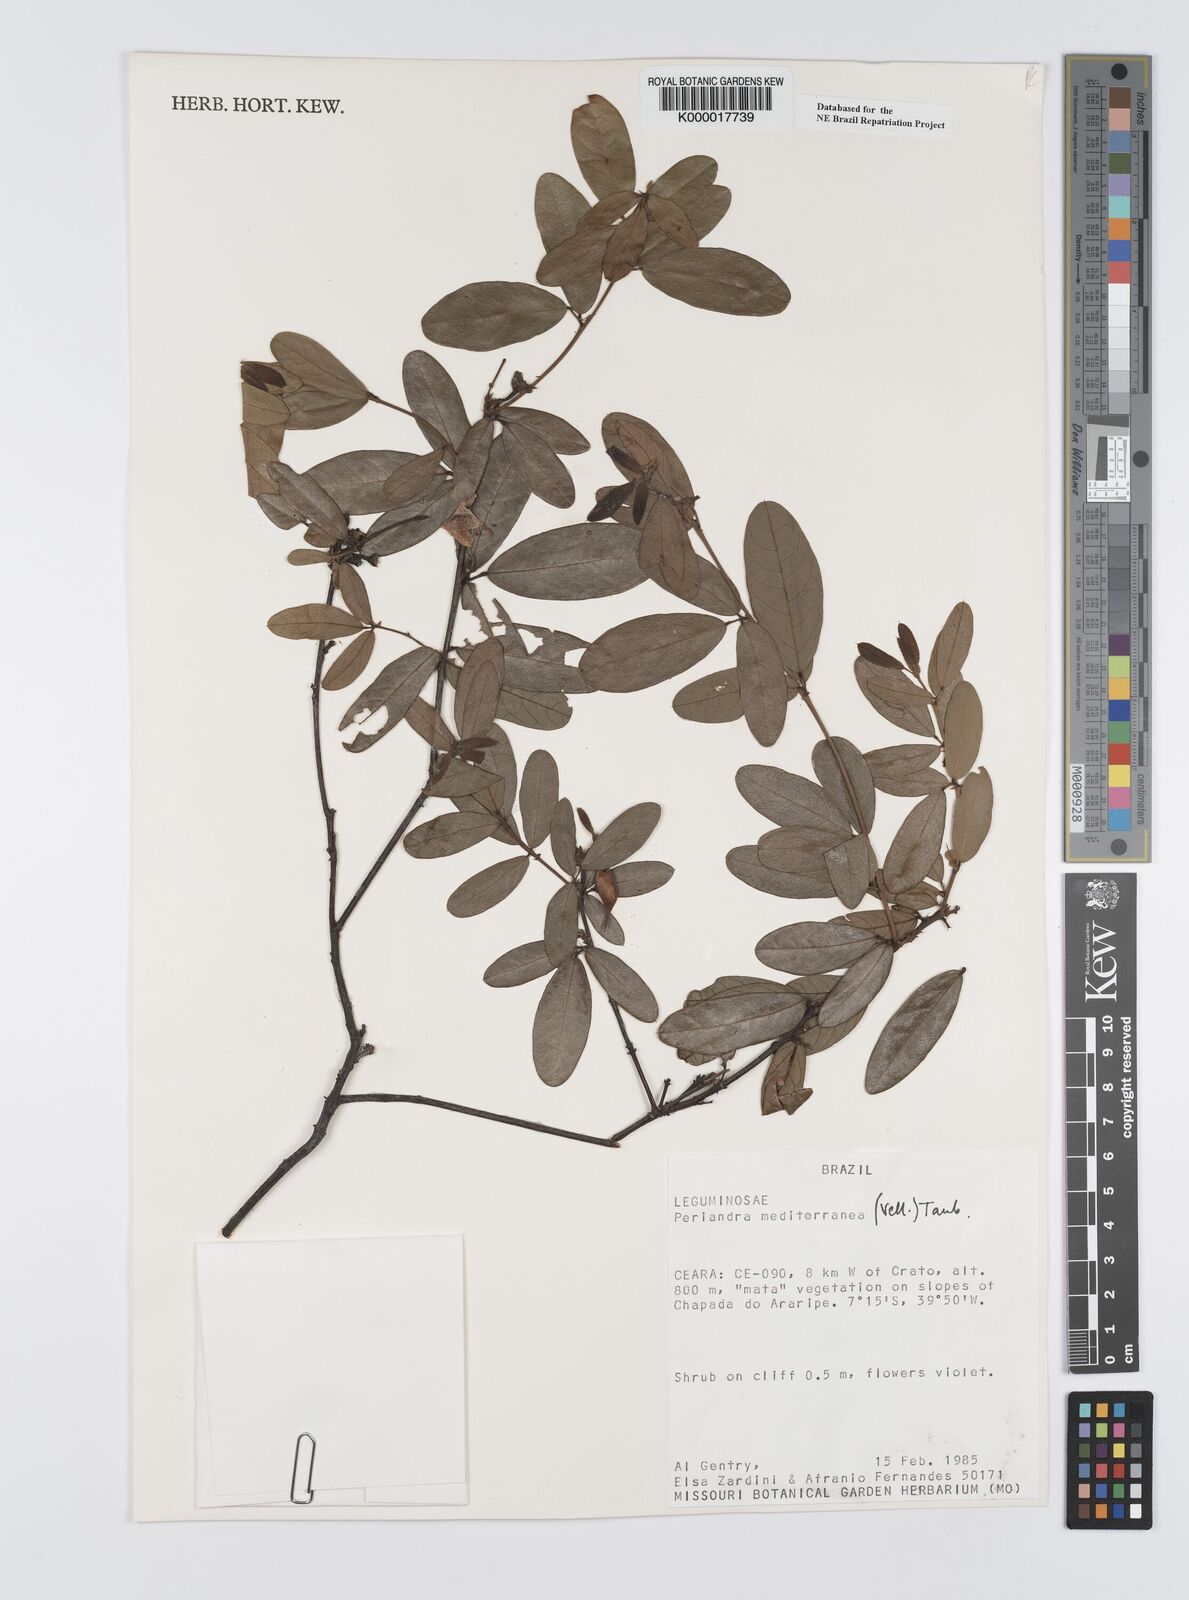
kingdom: Plantae
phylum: Tracheophyta
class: Magnoliopsida
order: Fabales
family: Fabaceae
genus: Periandra
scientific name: Periandra mediterranea
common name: Brazilian licorice
